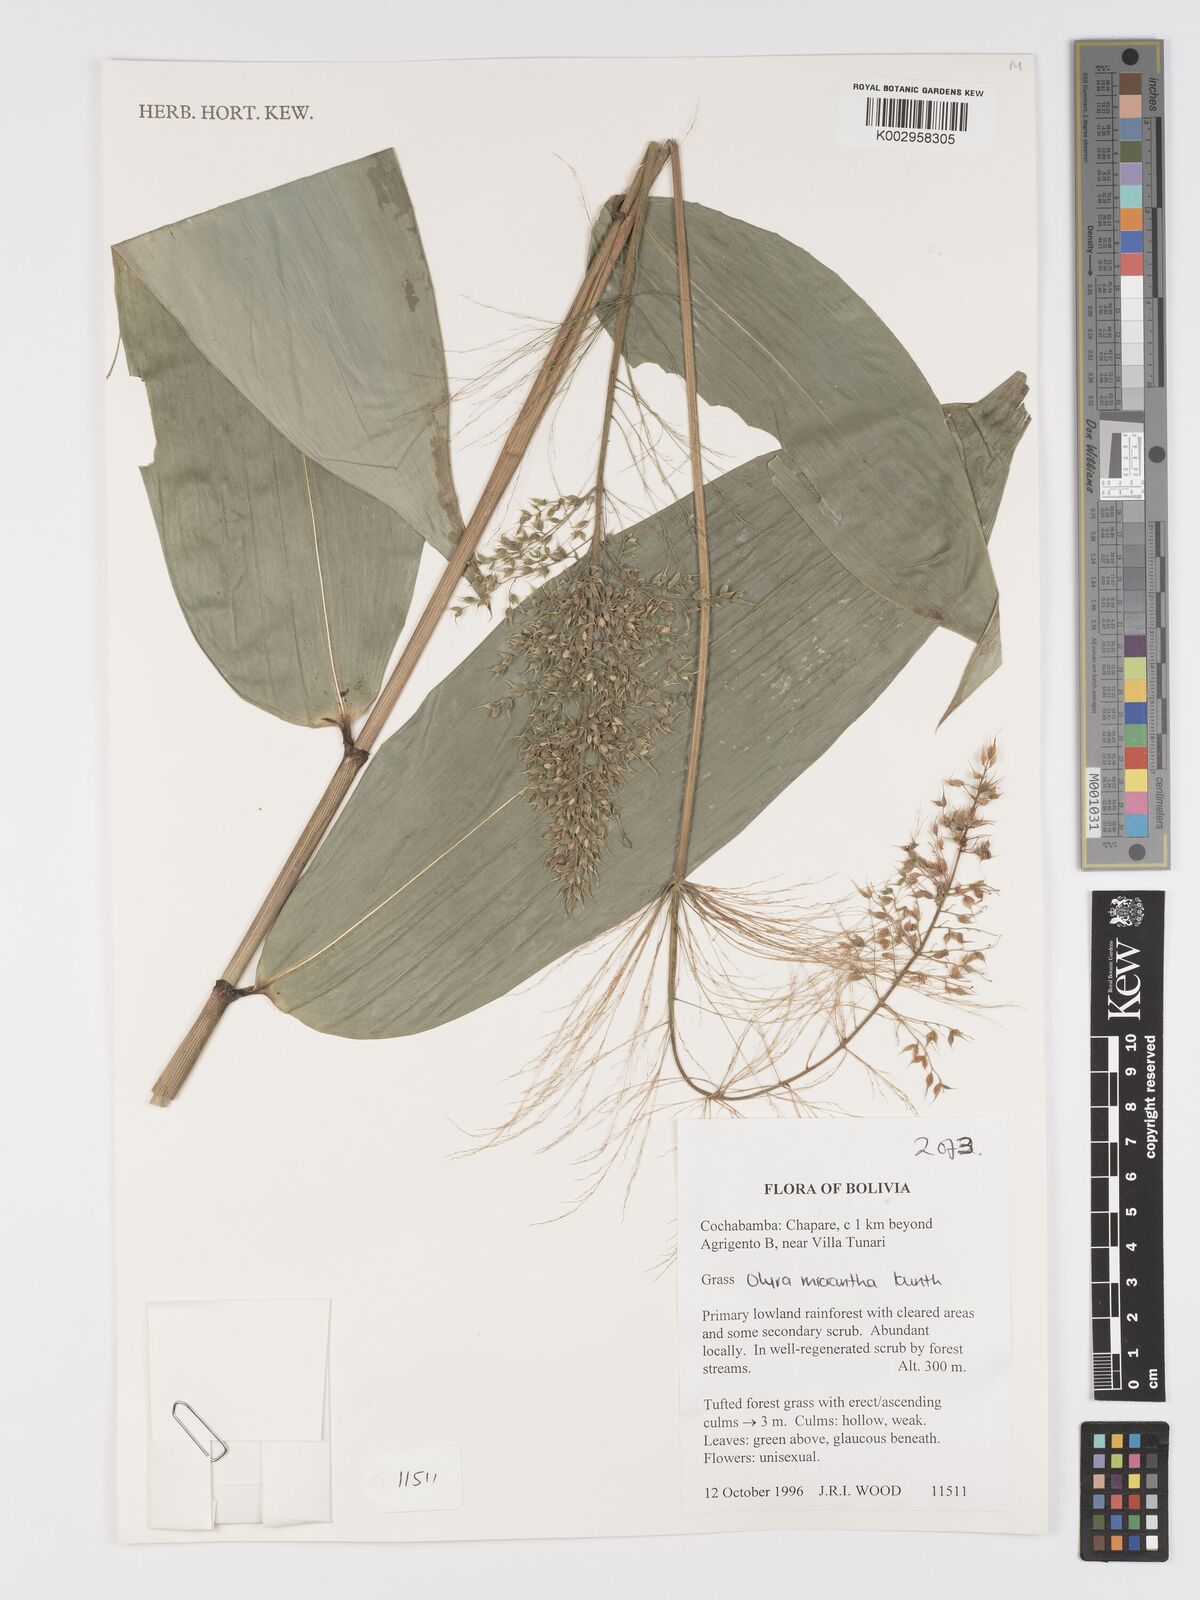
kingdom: Plantae
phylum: Tracheophyta
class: Liliopsida
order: Poales
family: Poaceae
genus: Taquara
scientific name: Taquara micrantha
